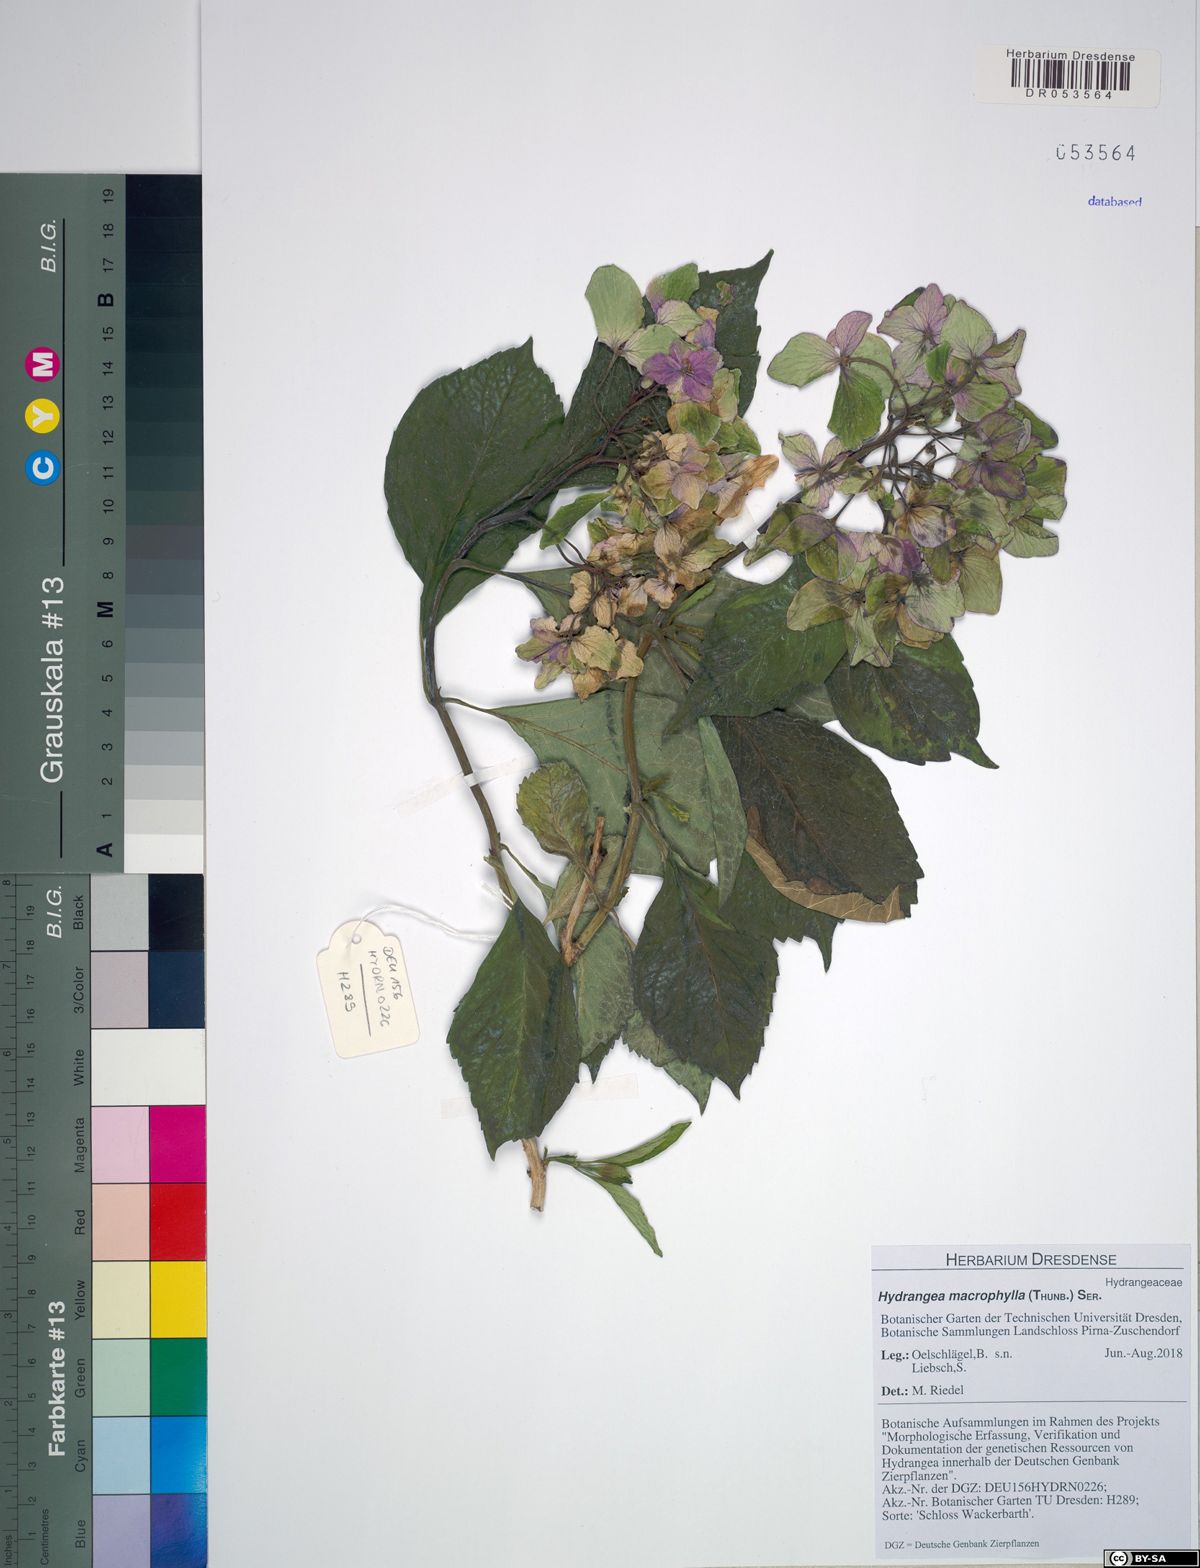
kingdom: Plantae
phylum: Tracheophyta
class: Magnoliopsida
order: Cornales
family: Hydrangeaceae
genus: Hydrangea
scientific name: Hydrangea macrophylla
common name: Hydrangea
